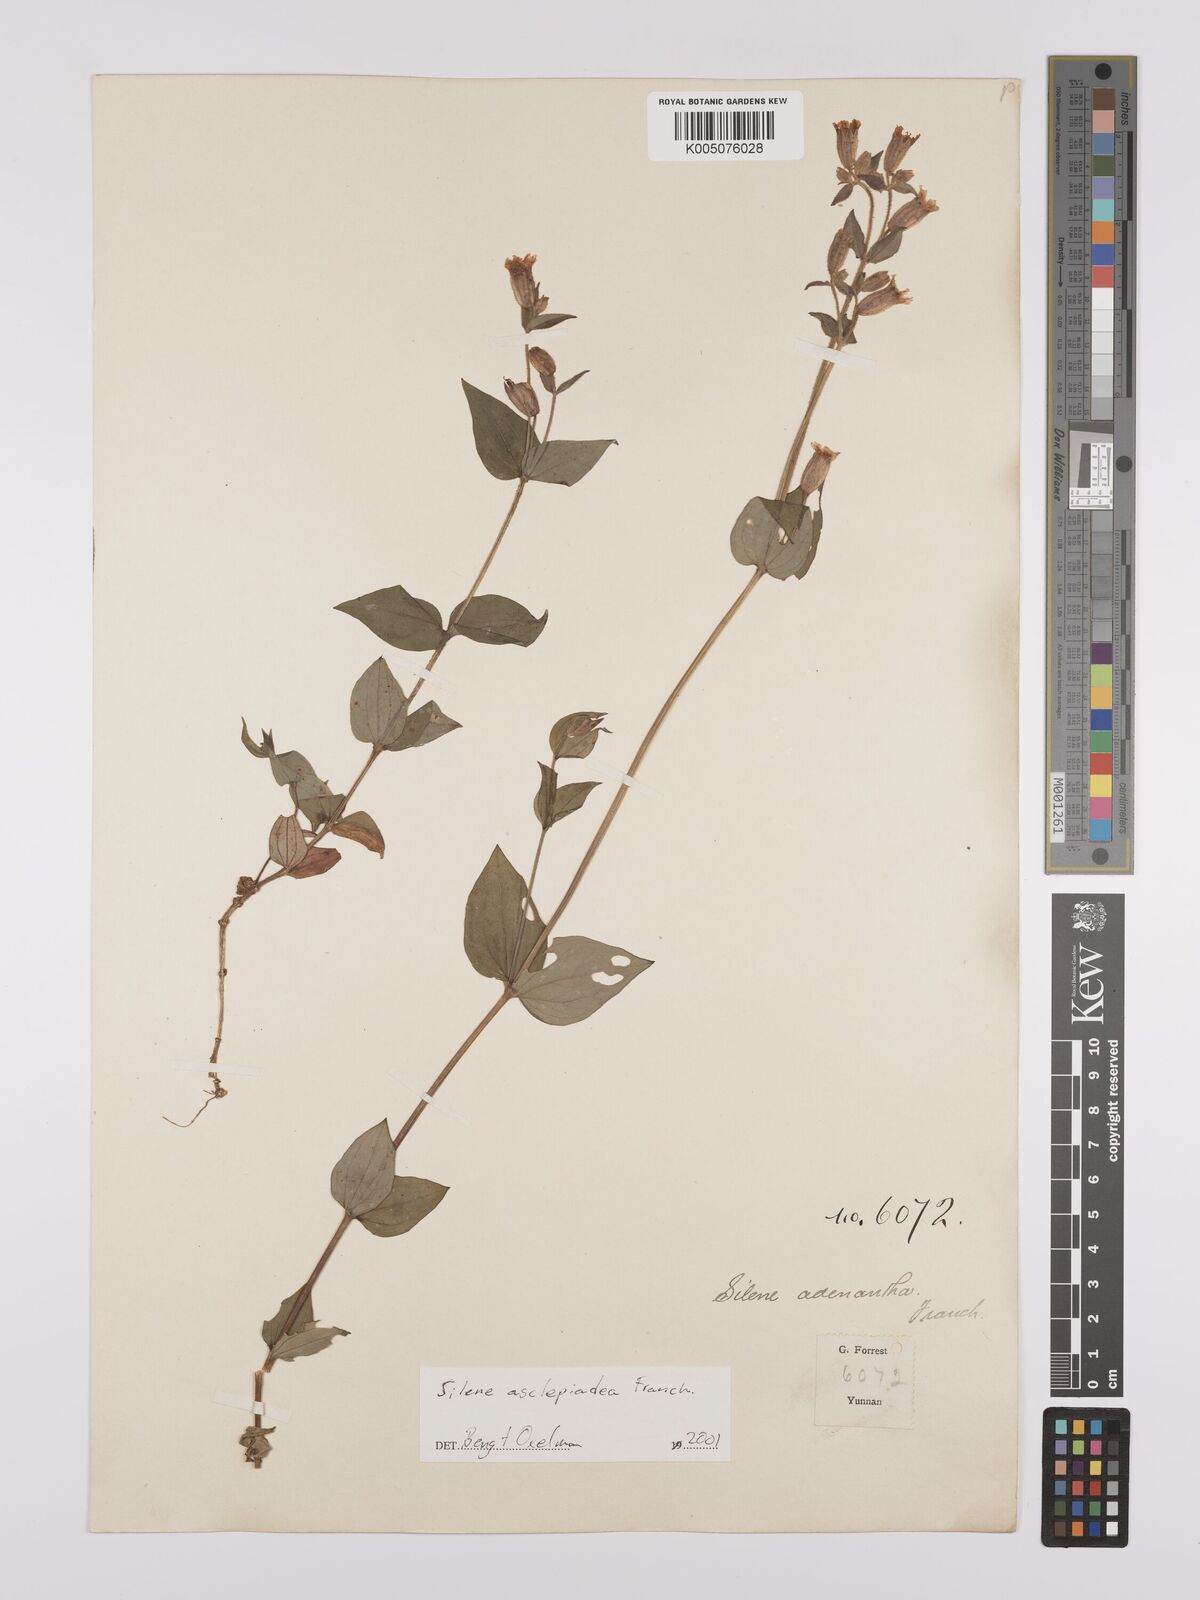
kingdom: Plantae
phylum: Tracheophyta
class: Magnoliopsida
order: Caryophyllales
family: Caryophyllaceae
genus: Silene
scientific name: Silene asclepiadea
